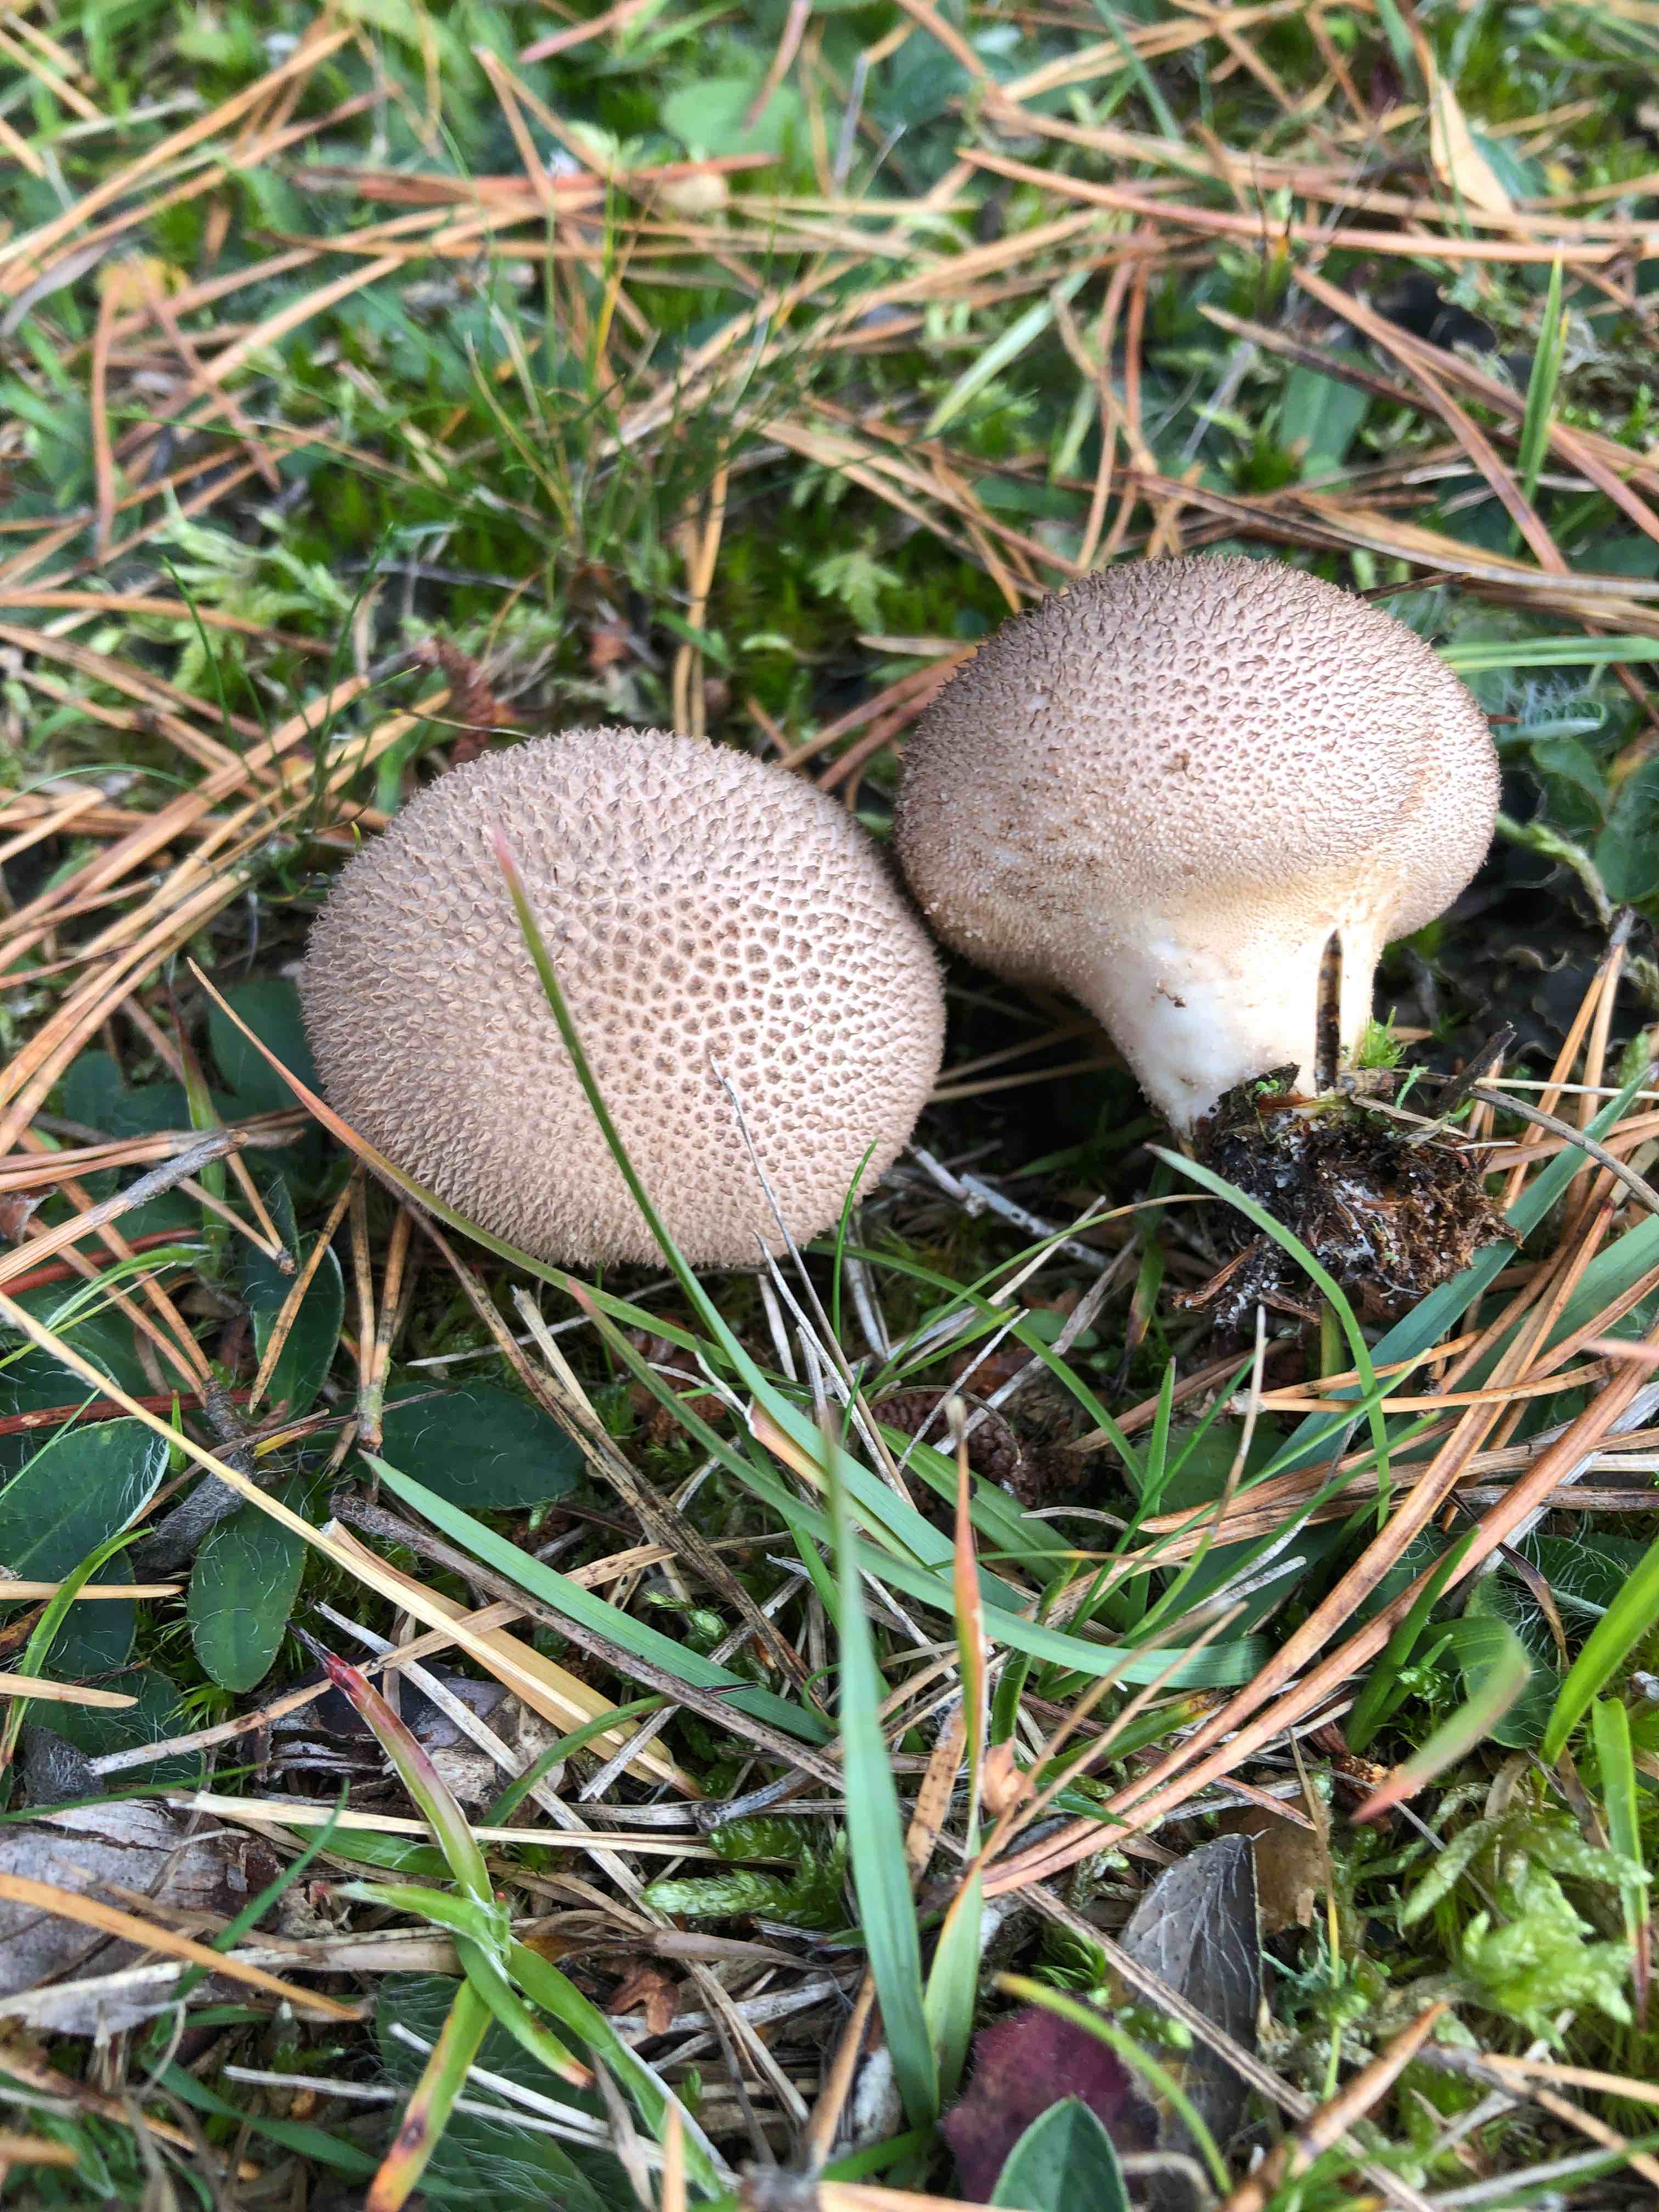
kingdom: Fungi
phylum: Basidiomycota
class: Agaricomycetes
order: Agaricales
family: Agaricaceae
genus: Lycoperdon
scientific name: Lycoperdon
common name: støvbold
